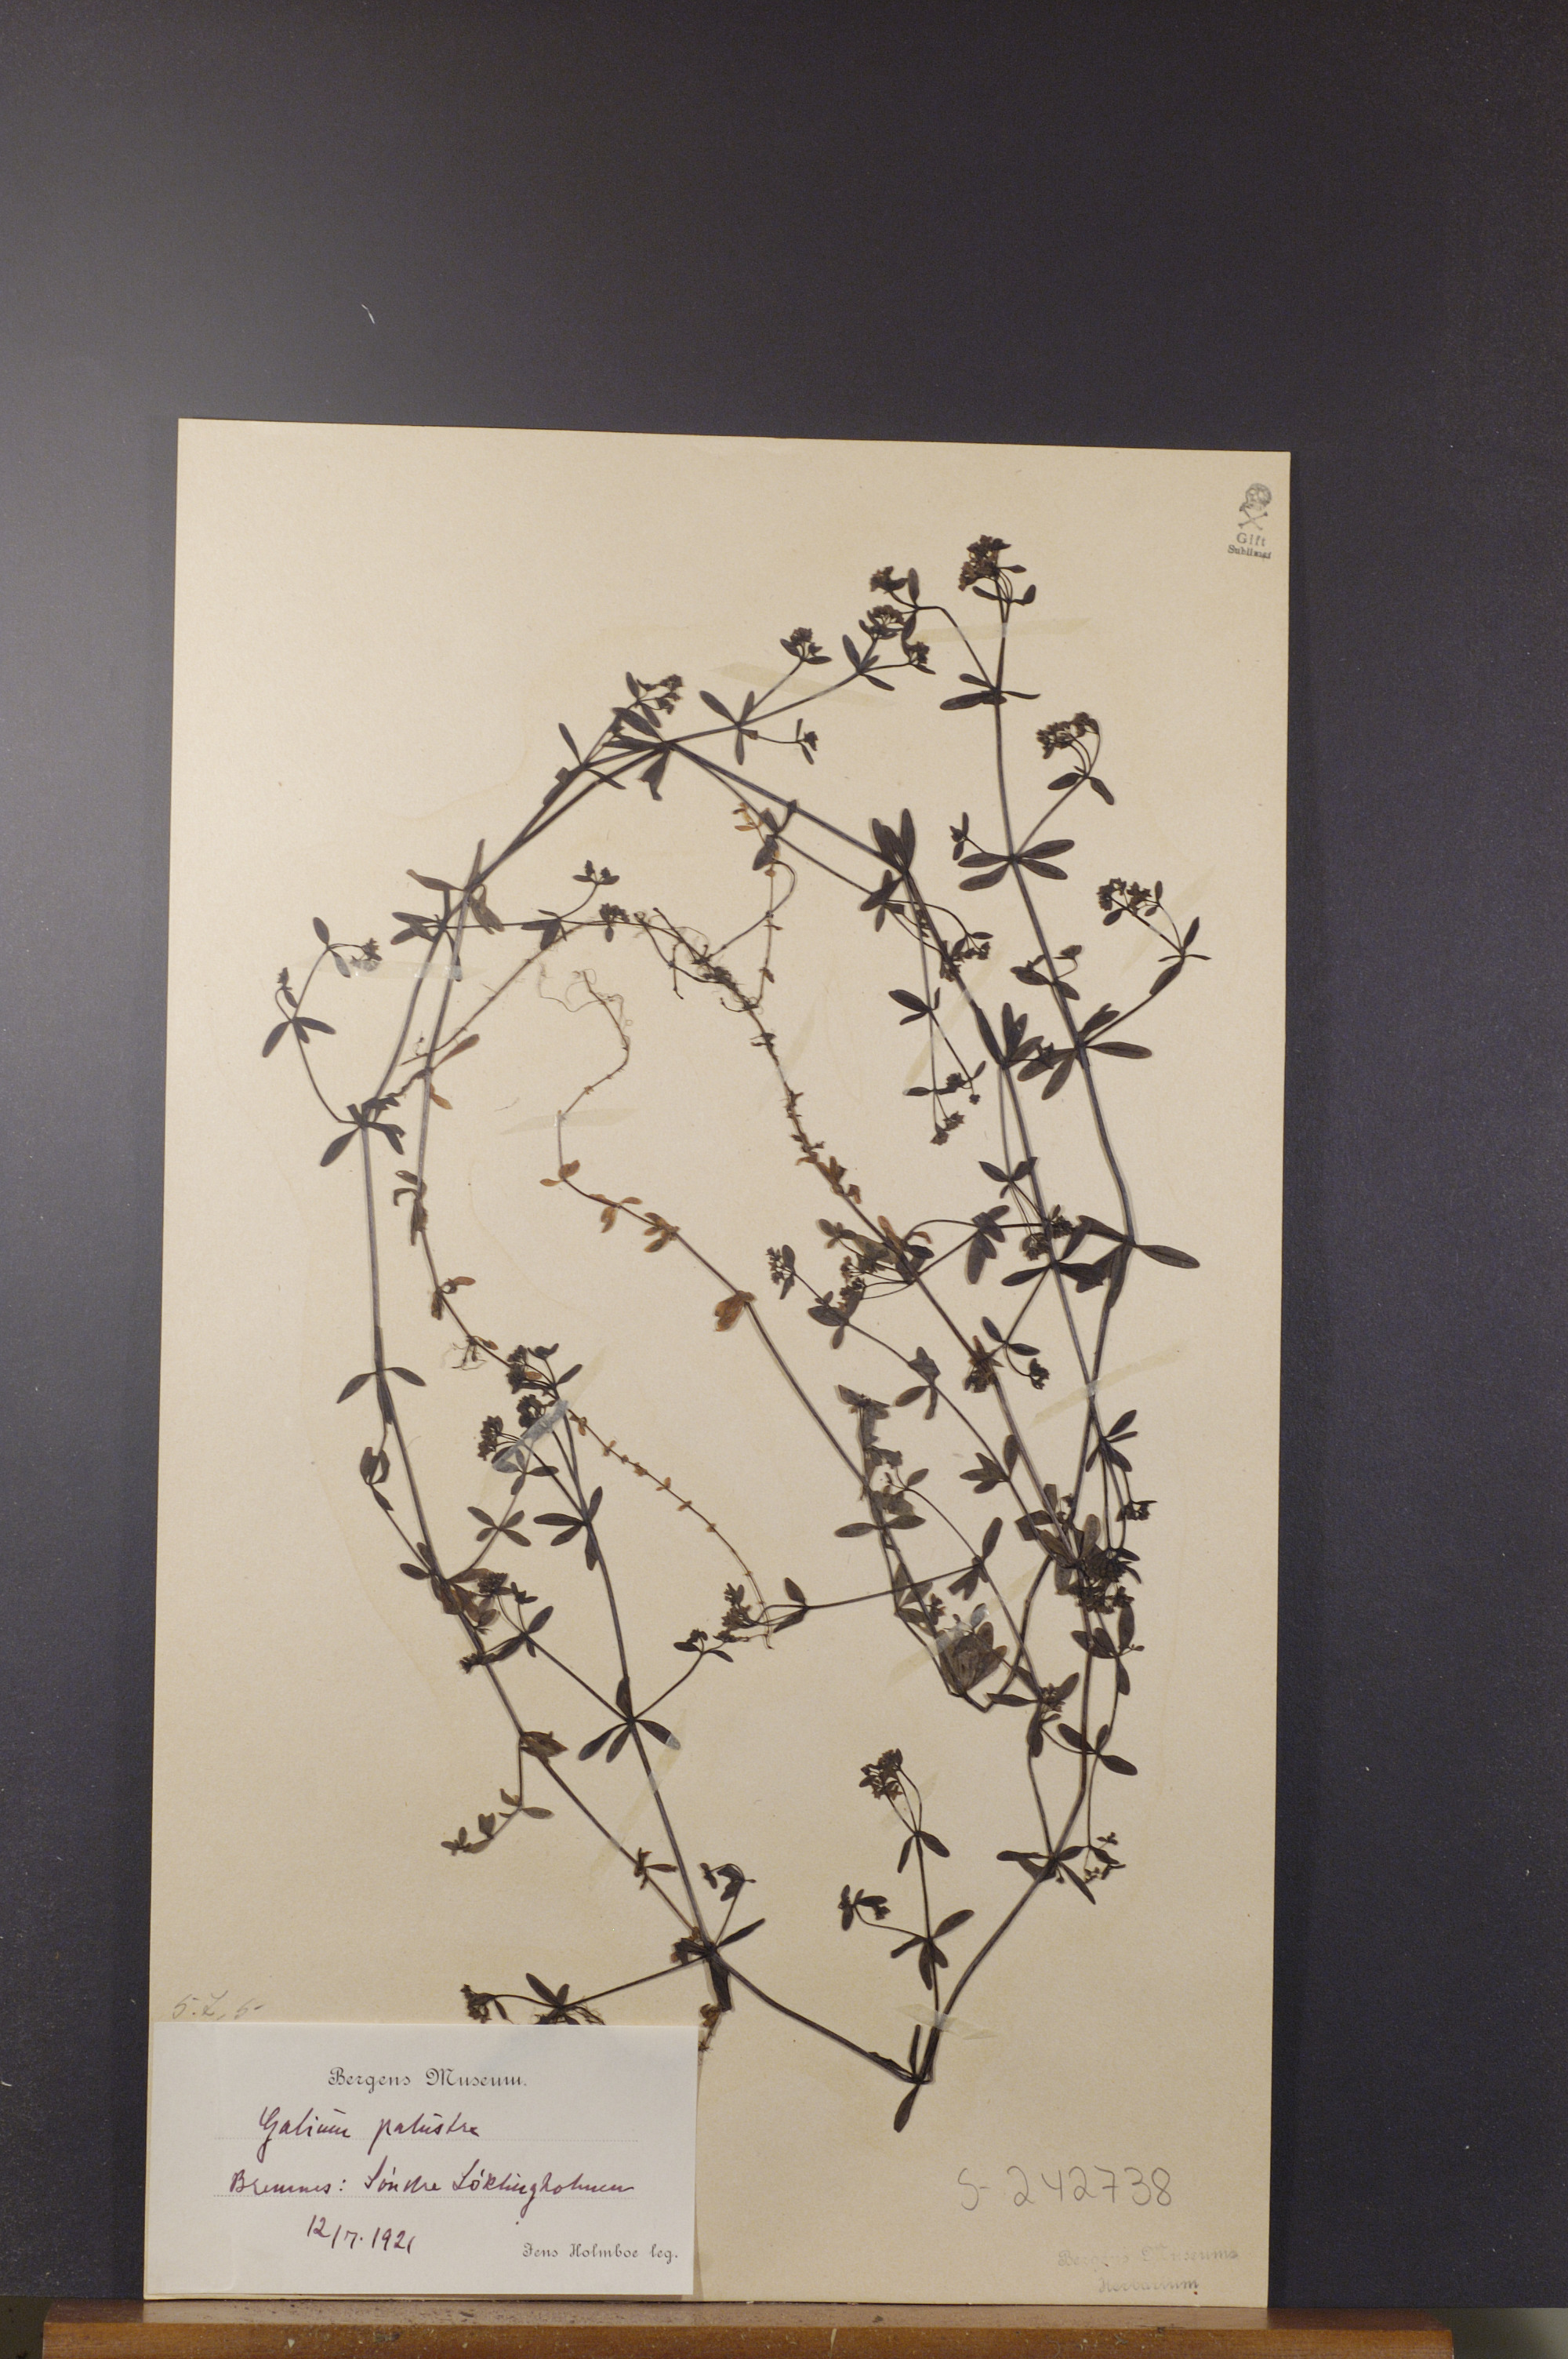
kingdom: Plantae
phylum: Tracheophyta
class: Magnoliopsida
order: Gentianales
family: Rubiaceae
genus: Galium
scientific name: Galium palustre
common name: Common marsh-bedstraw
